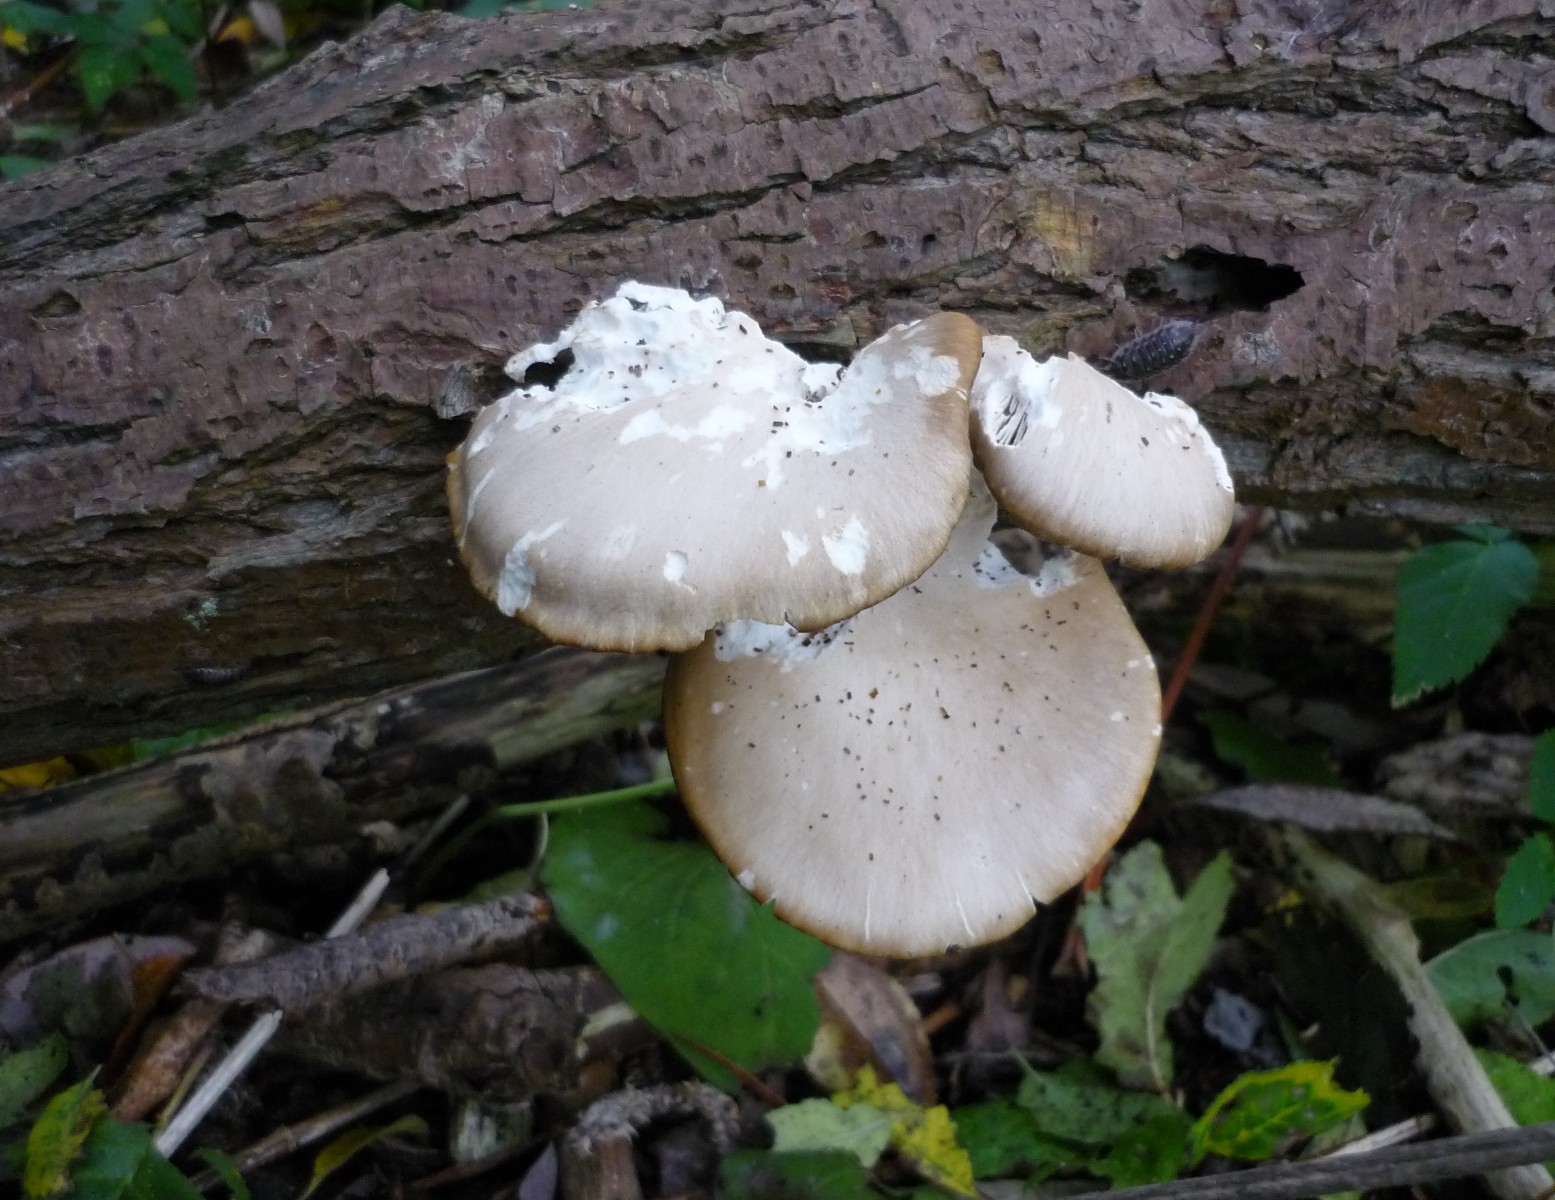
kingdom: Fungi
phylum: Basidiomycota
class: Agaricomycetes
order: Agaricales
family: Pleurotaceae
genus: Pleurotus
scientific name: Pleurotus
